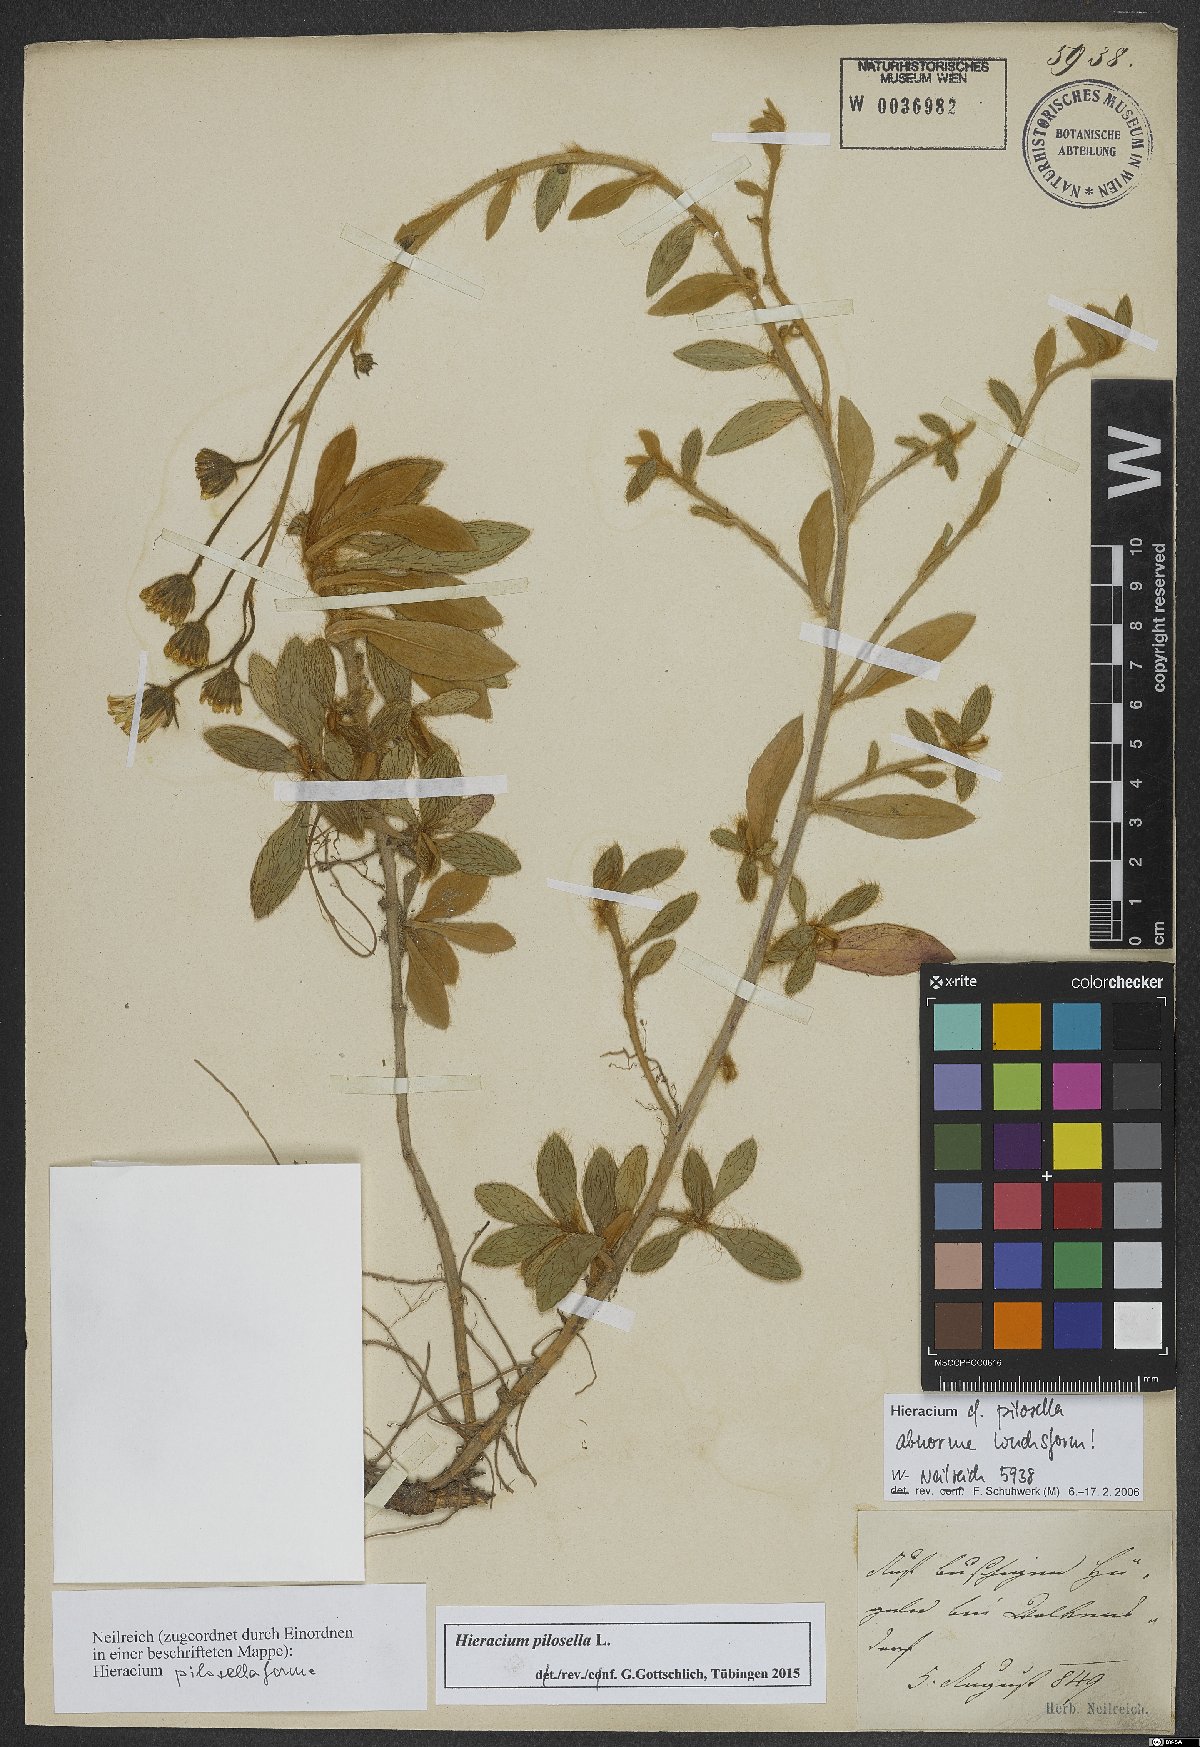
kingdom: Plantae
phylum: Tracheophyta
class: Magnoliopsida
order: Asterales
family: Asteraceae
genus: Pilosella
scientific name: Pilosella officinarum
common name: Mouse-ear hawkweed
